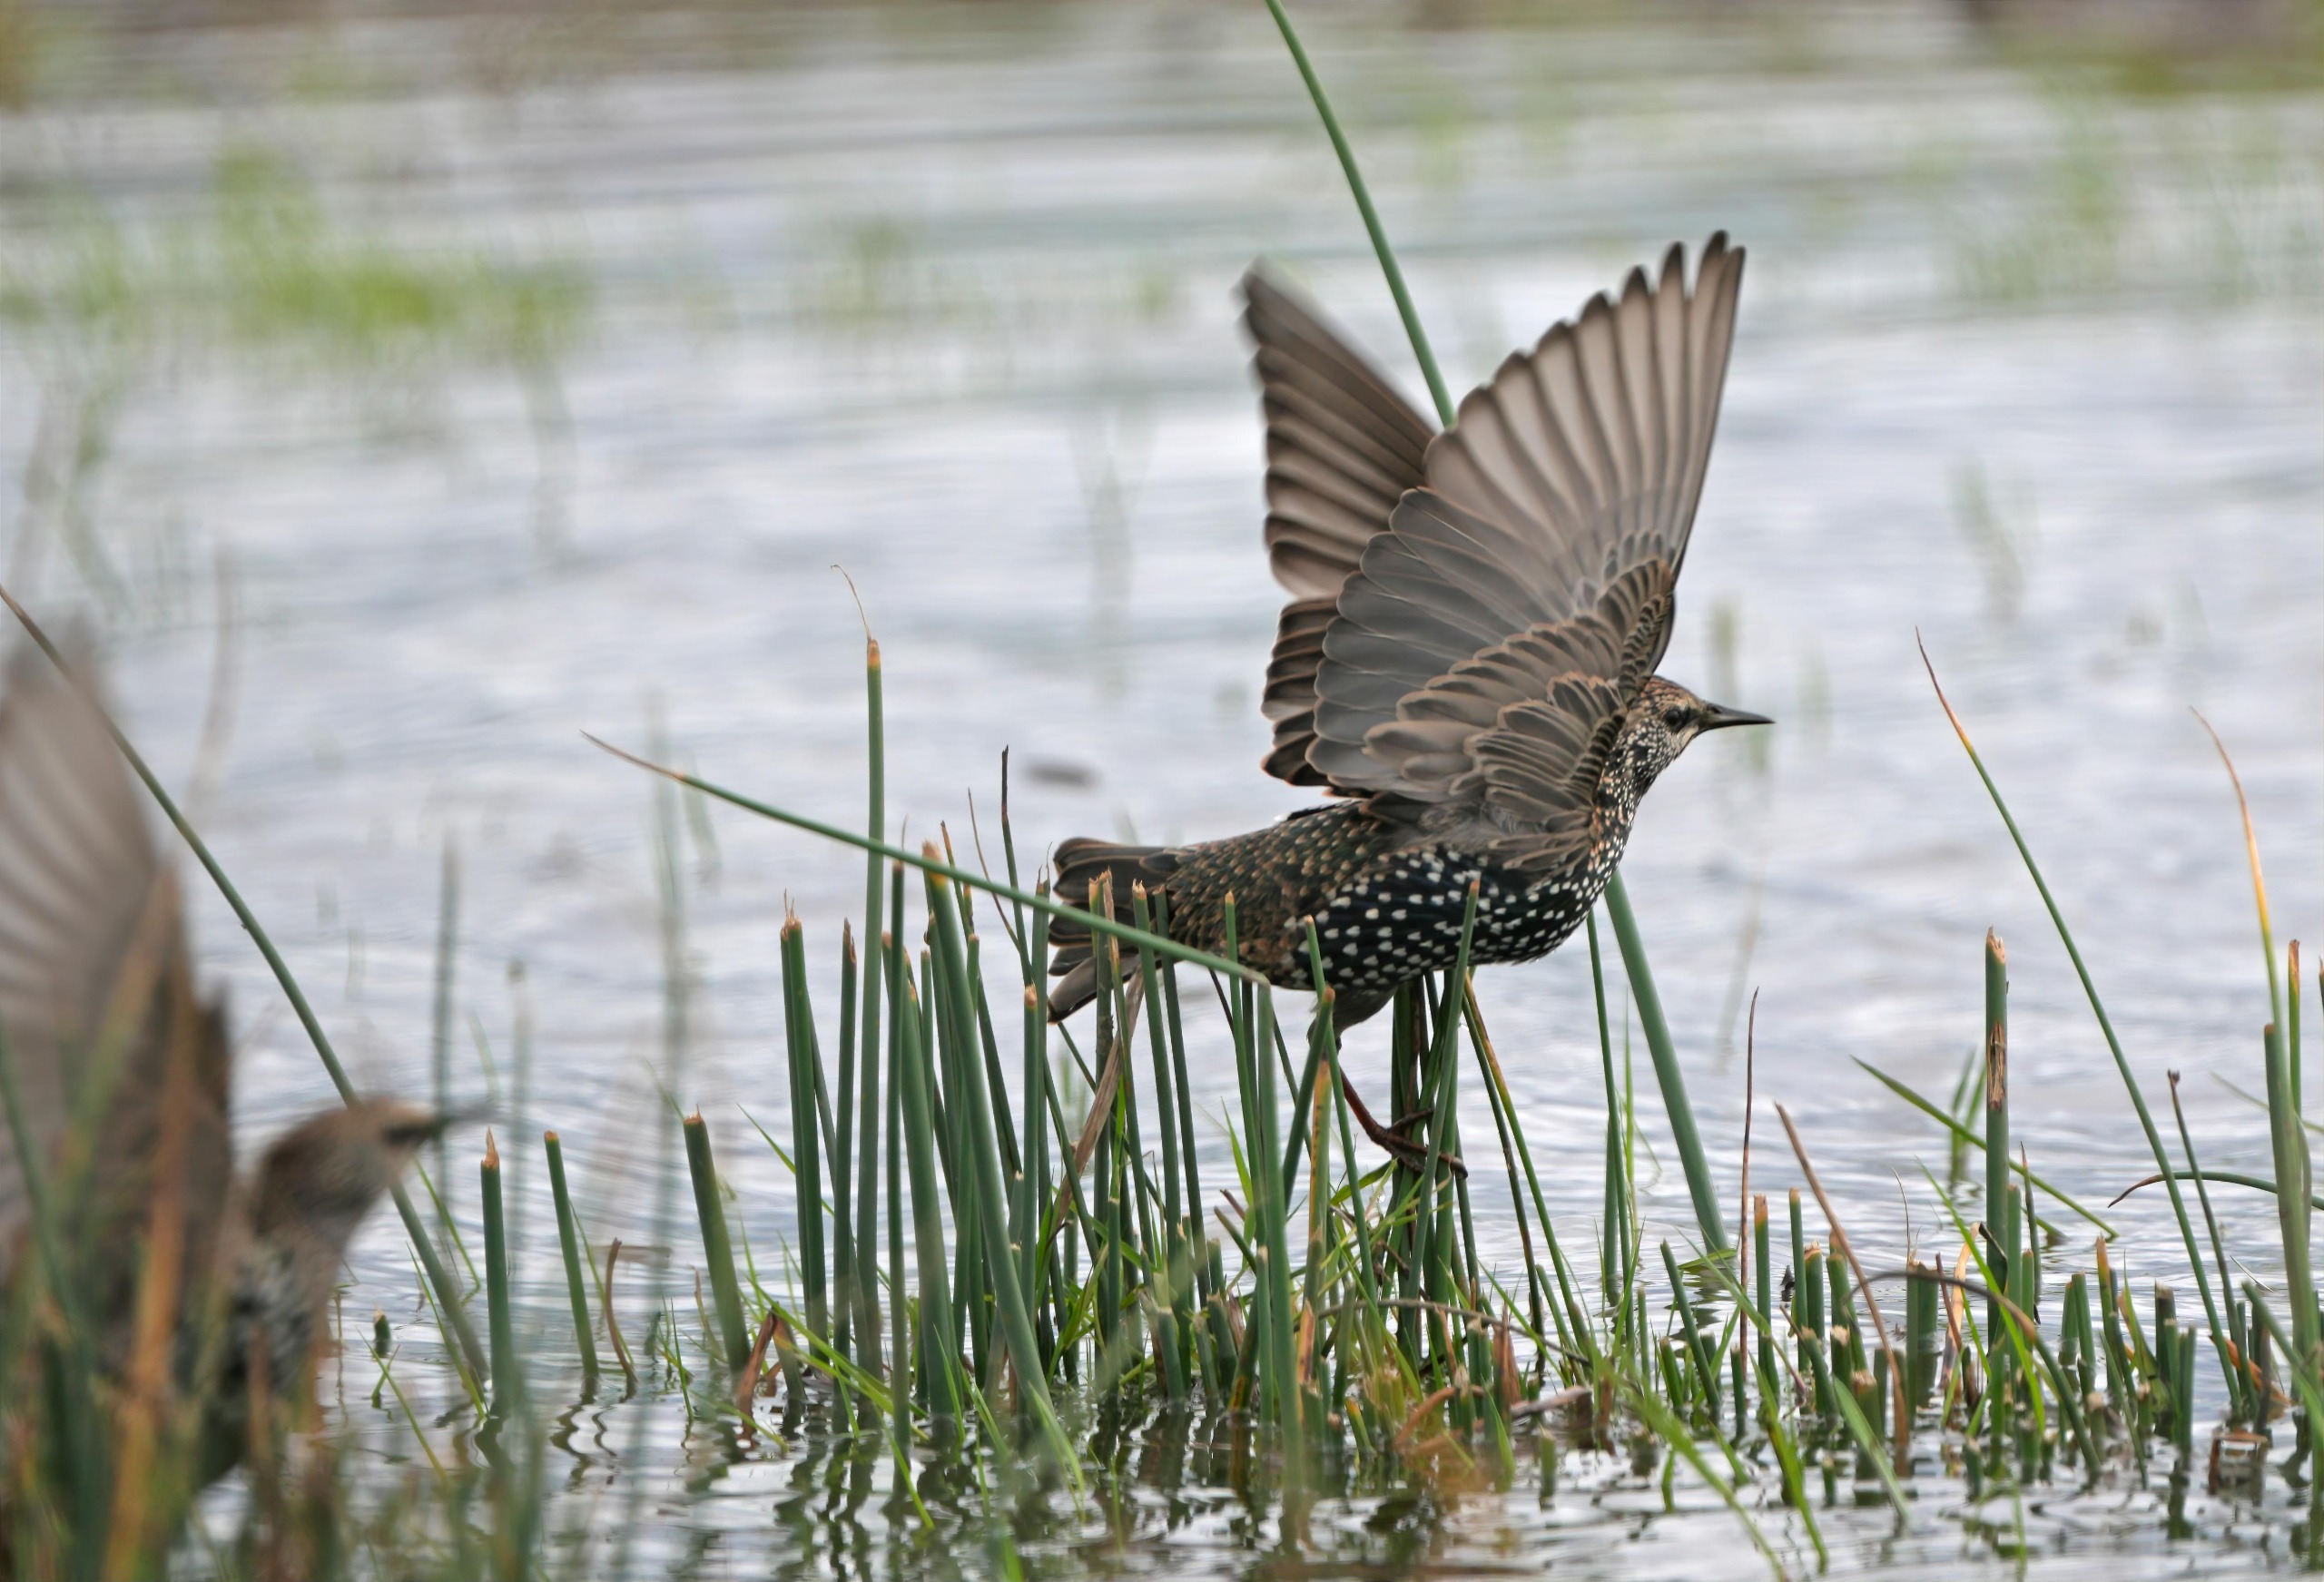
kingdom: Animalia
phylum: Chordata
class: Aves
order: Passeriformes
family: Sturnidae
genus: Sturnus
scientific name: Sturnus vulgaris
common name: Stær
